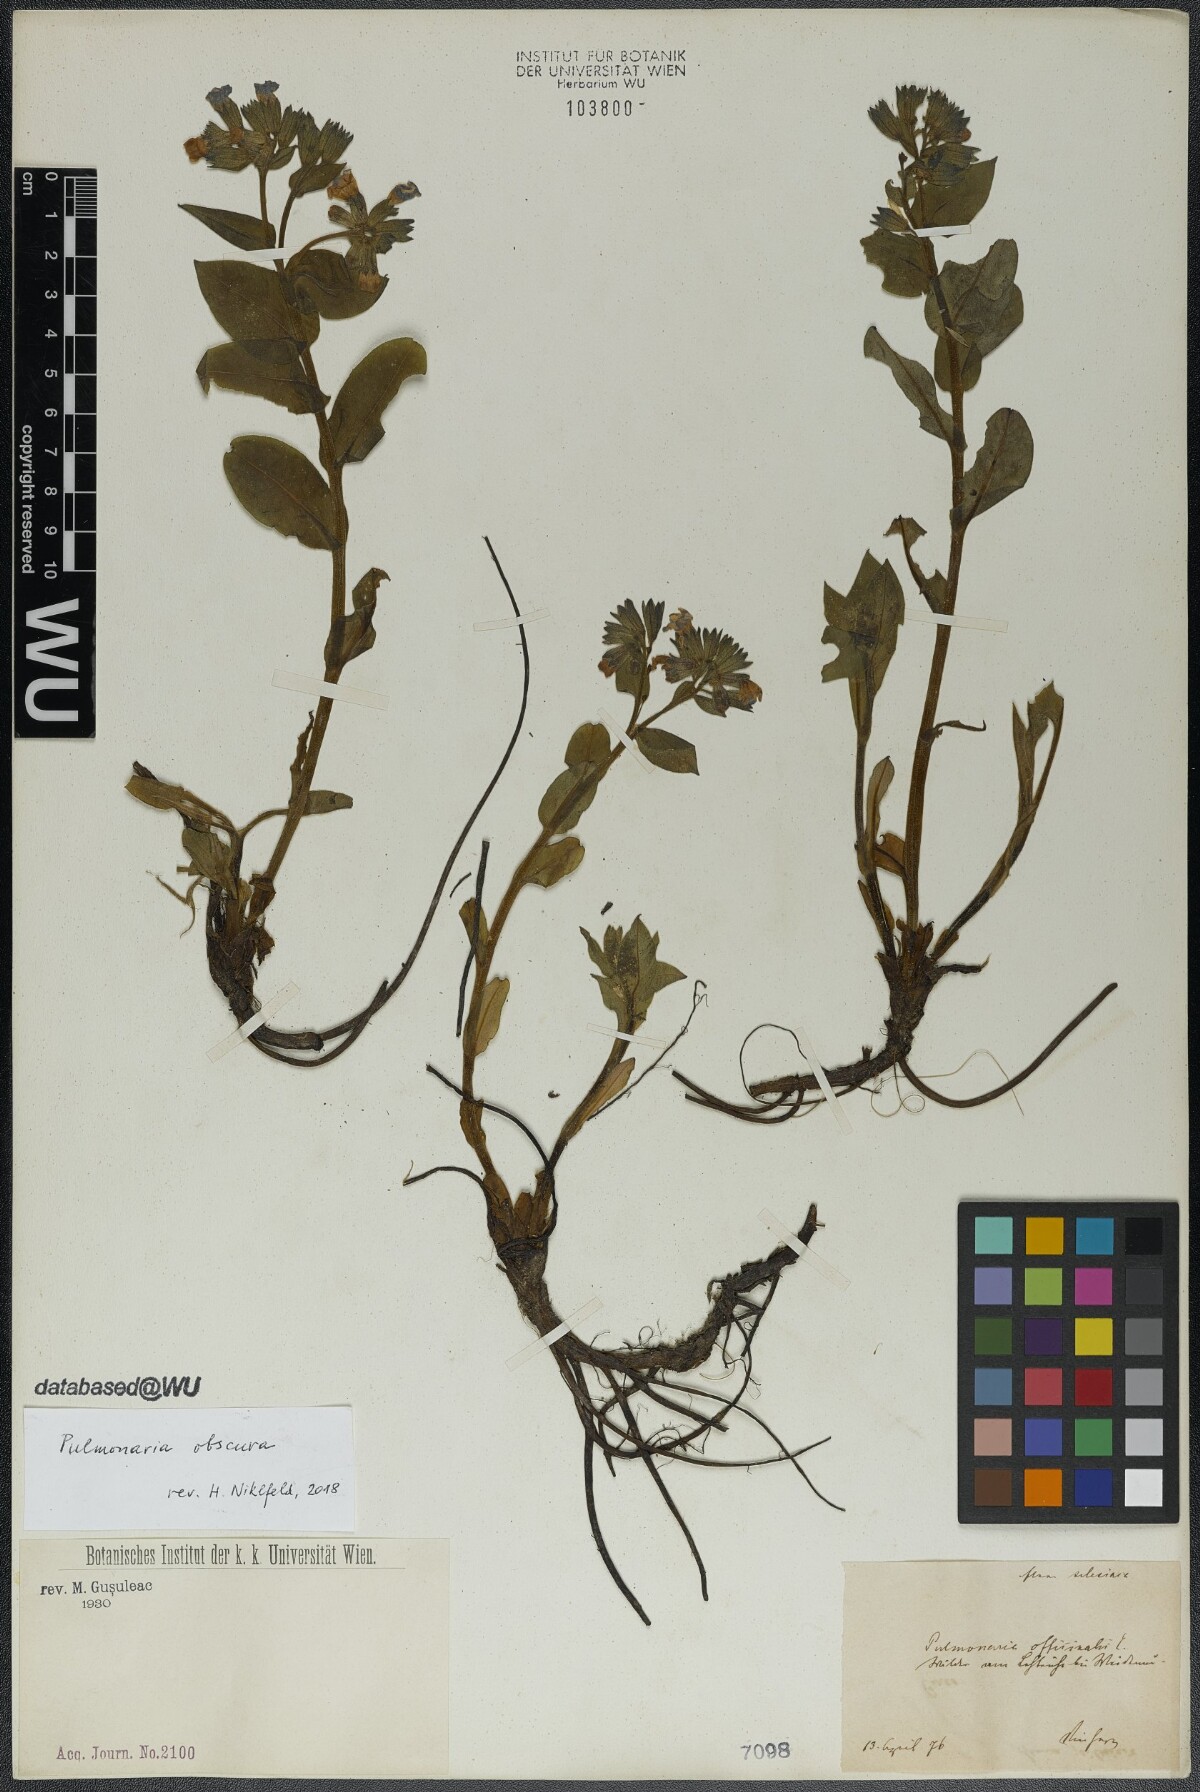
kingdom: Plantae
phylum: Tracheophyta
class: Magnoliopsida
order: Boraginales
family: Boraginaceae
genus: Pulmonaria
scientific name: Pulmonaria obscura
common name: Suffolk lungwort
